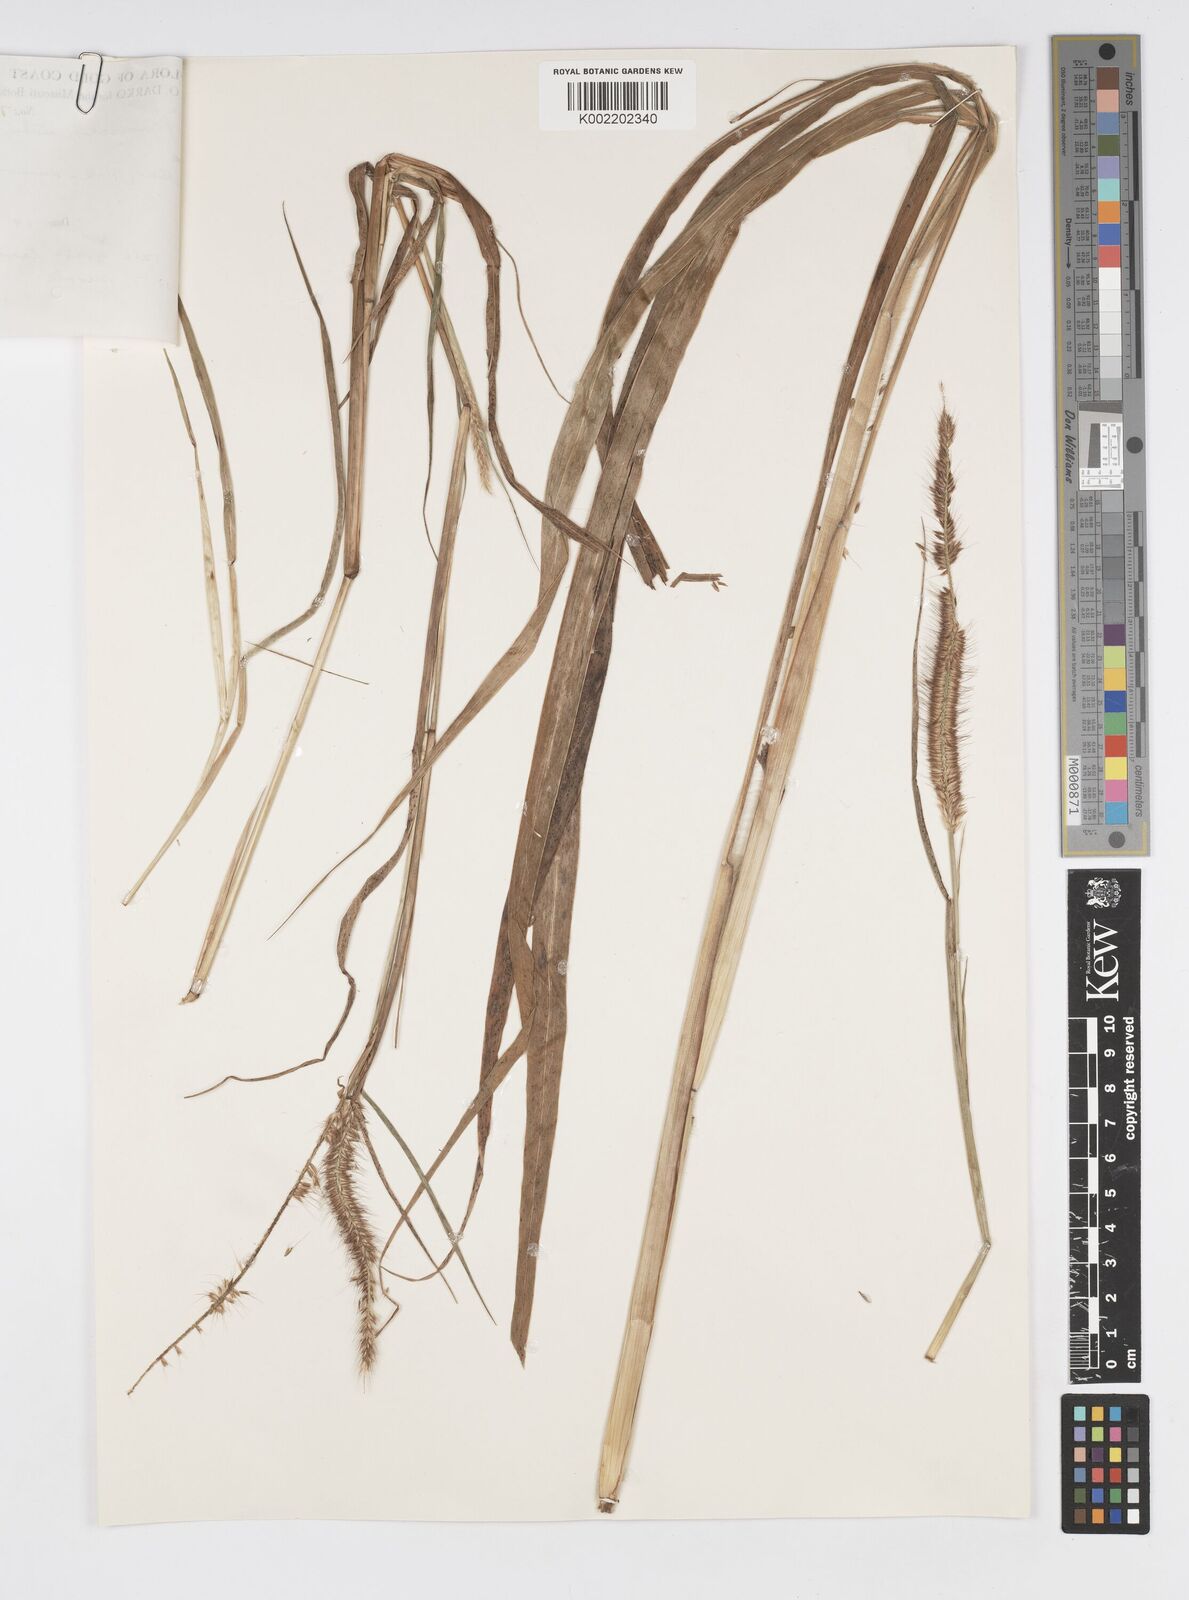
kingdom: Plantae
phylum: Tracheophyta
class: Liliopsida
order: Poales
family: Poaceae
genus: Cenchrus
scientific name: Cenchrus hordeoides
